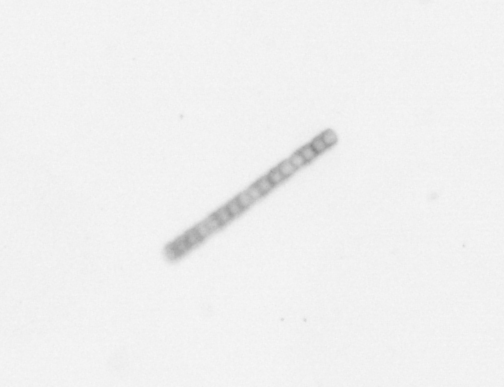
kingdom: Chromista
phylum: Ochrophyta
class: Bacillariophyceae
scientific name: Bacillariophyceae
